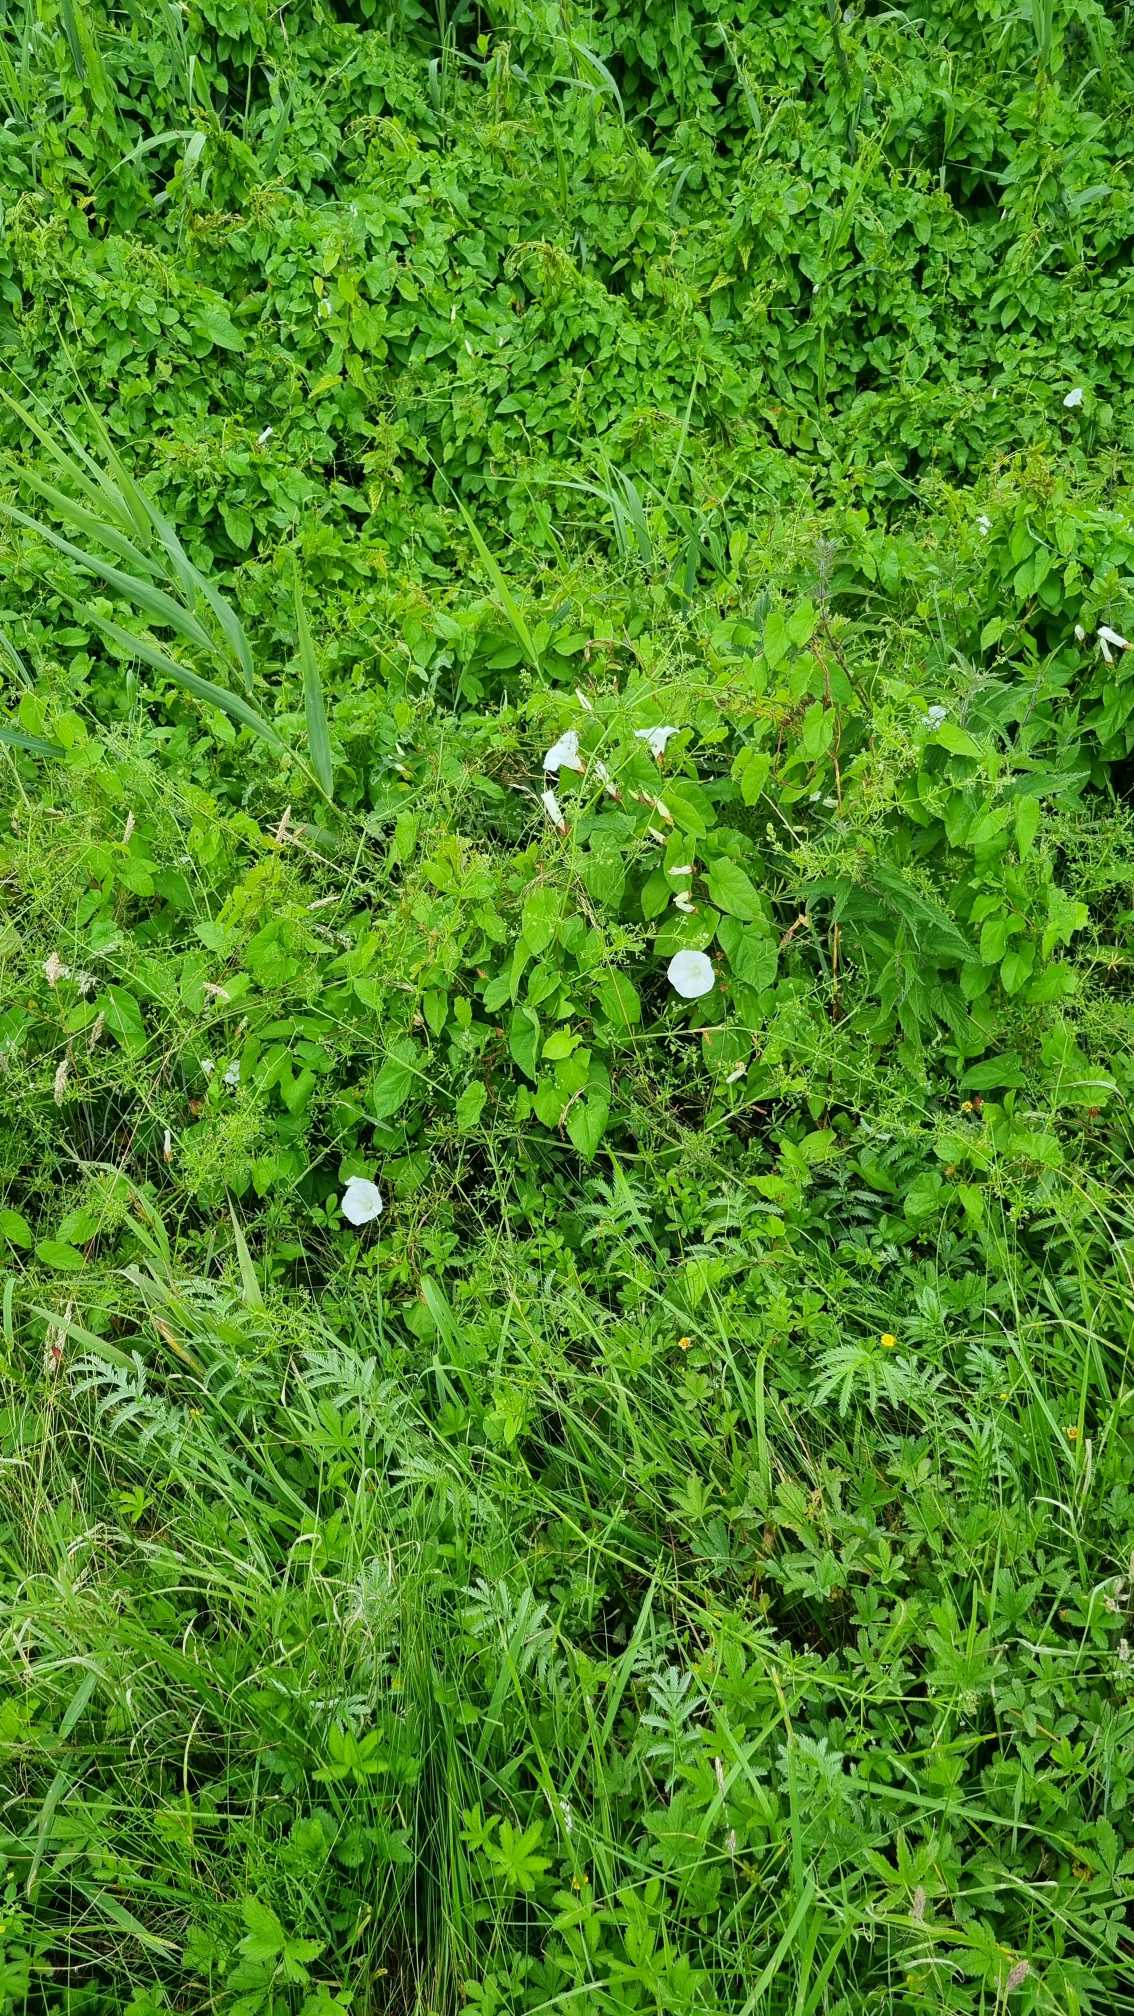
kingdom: Plantae
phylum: Tracheophyta
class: Magnoliopsida
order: Solanales
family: Convolvulaceae
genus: Calystegia
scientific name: Calystegia sepium
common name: Gærde-snerle
